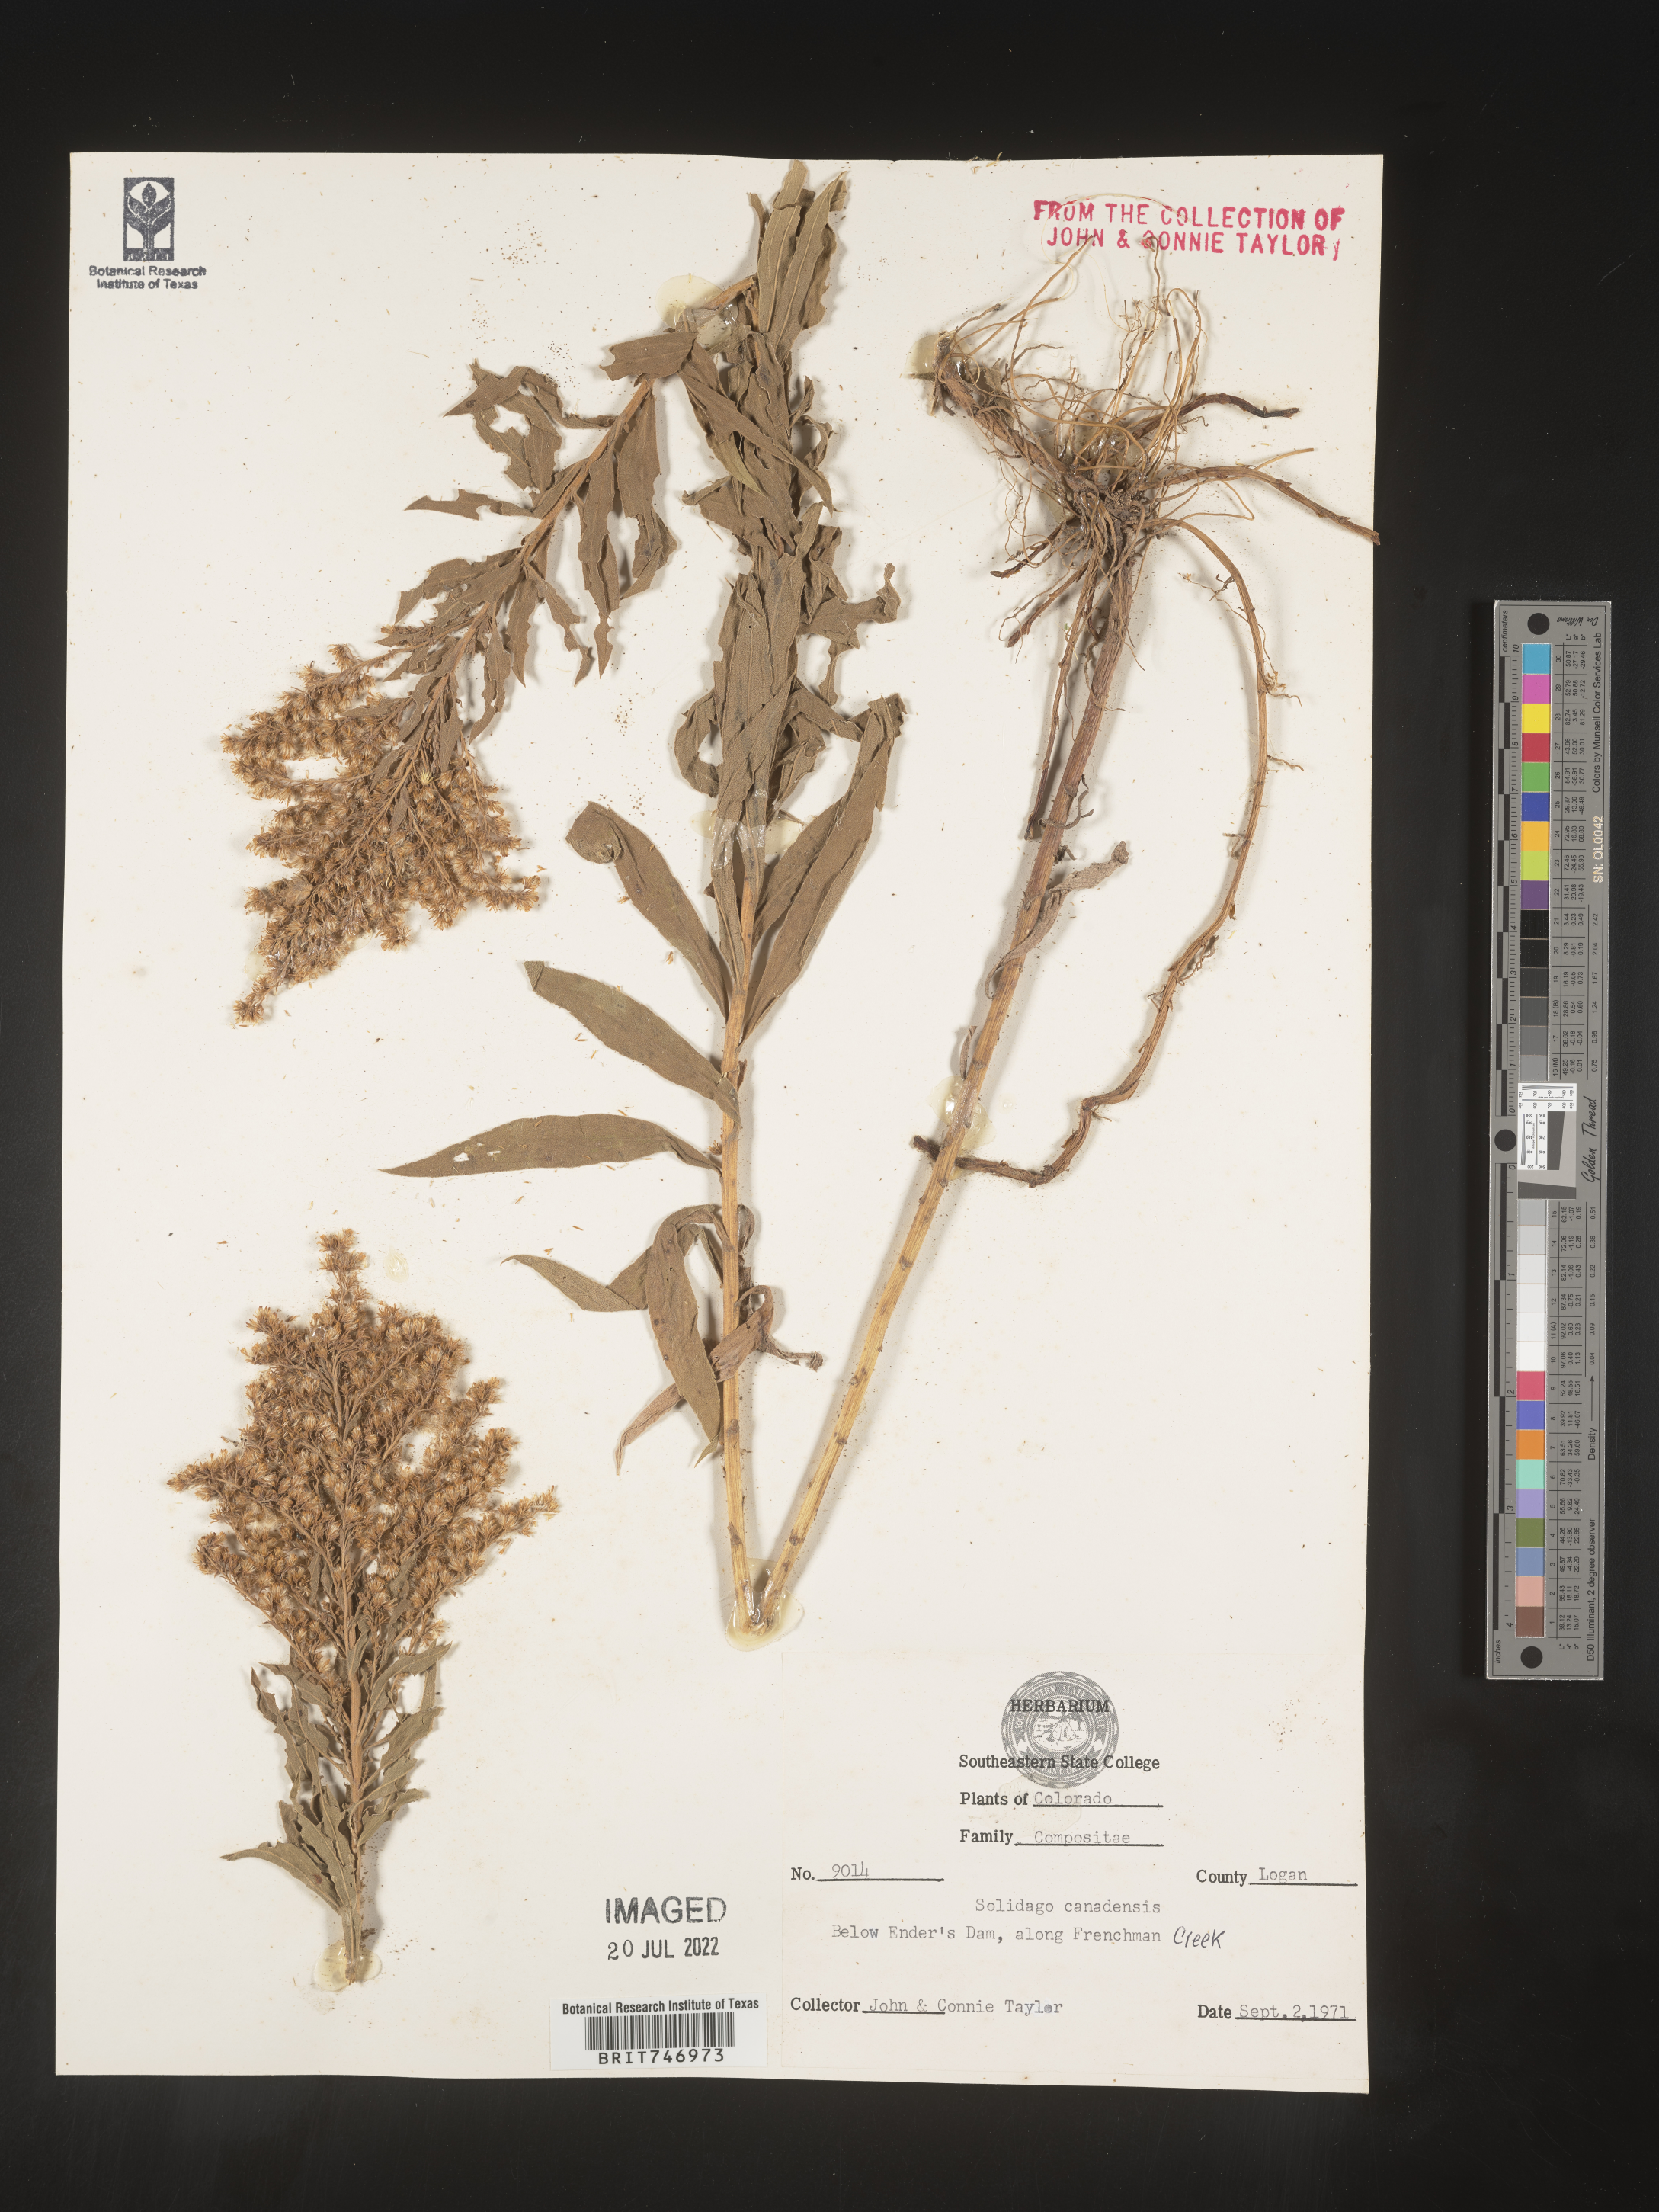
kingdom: Plantae
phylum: Tracheophyta
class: Magnoliopsida
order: Asterales
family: Asteraceae
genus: Solidago
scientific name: Solidago lepida
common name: Western canada goldenrod
